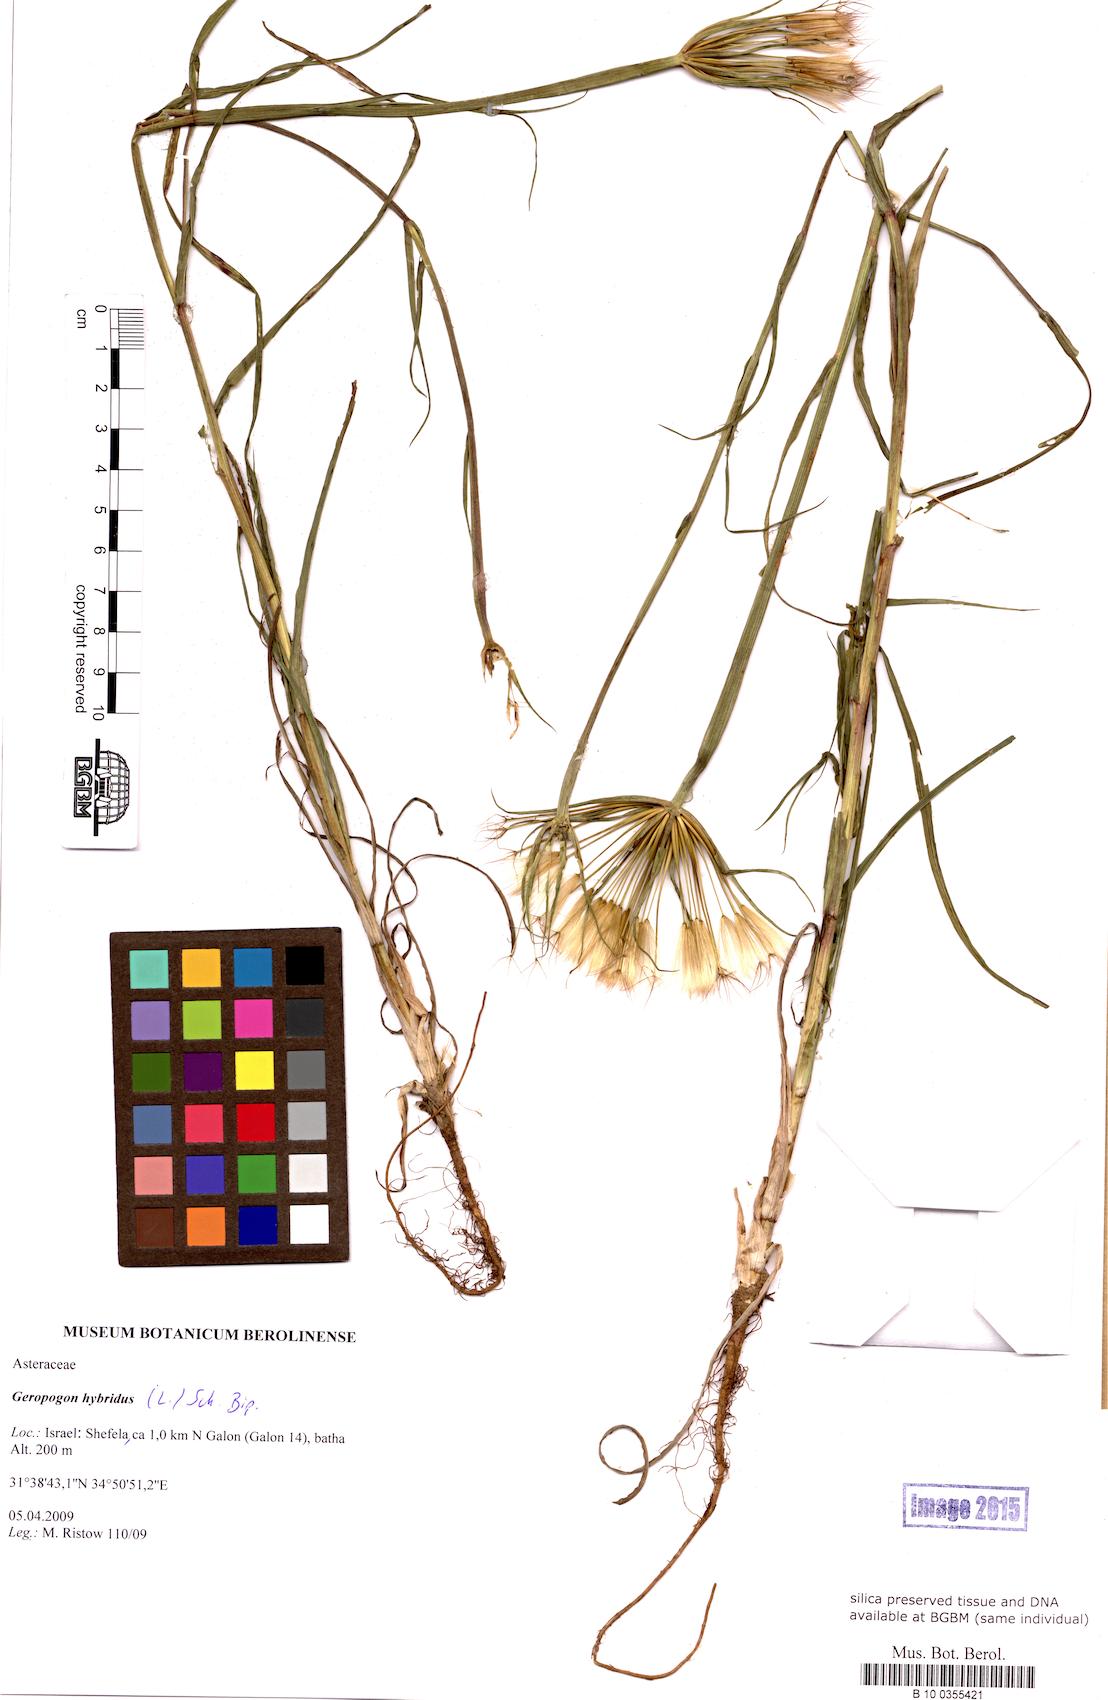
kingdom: Plantae
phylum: Tracheophyta
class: Magnoliopsida
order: Asterales
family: Asteraceae
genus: Geropogon
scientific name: Geropogon hybridus
